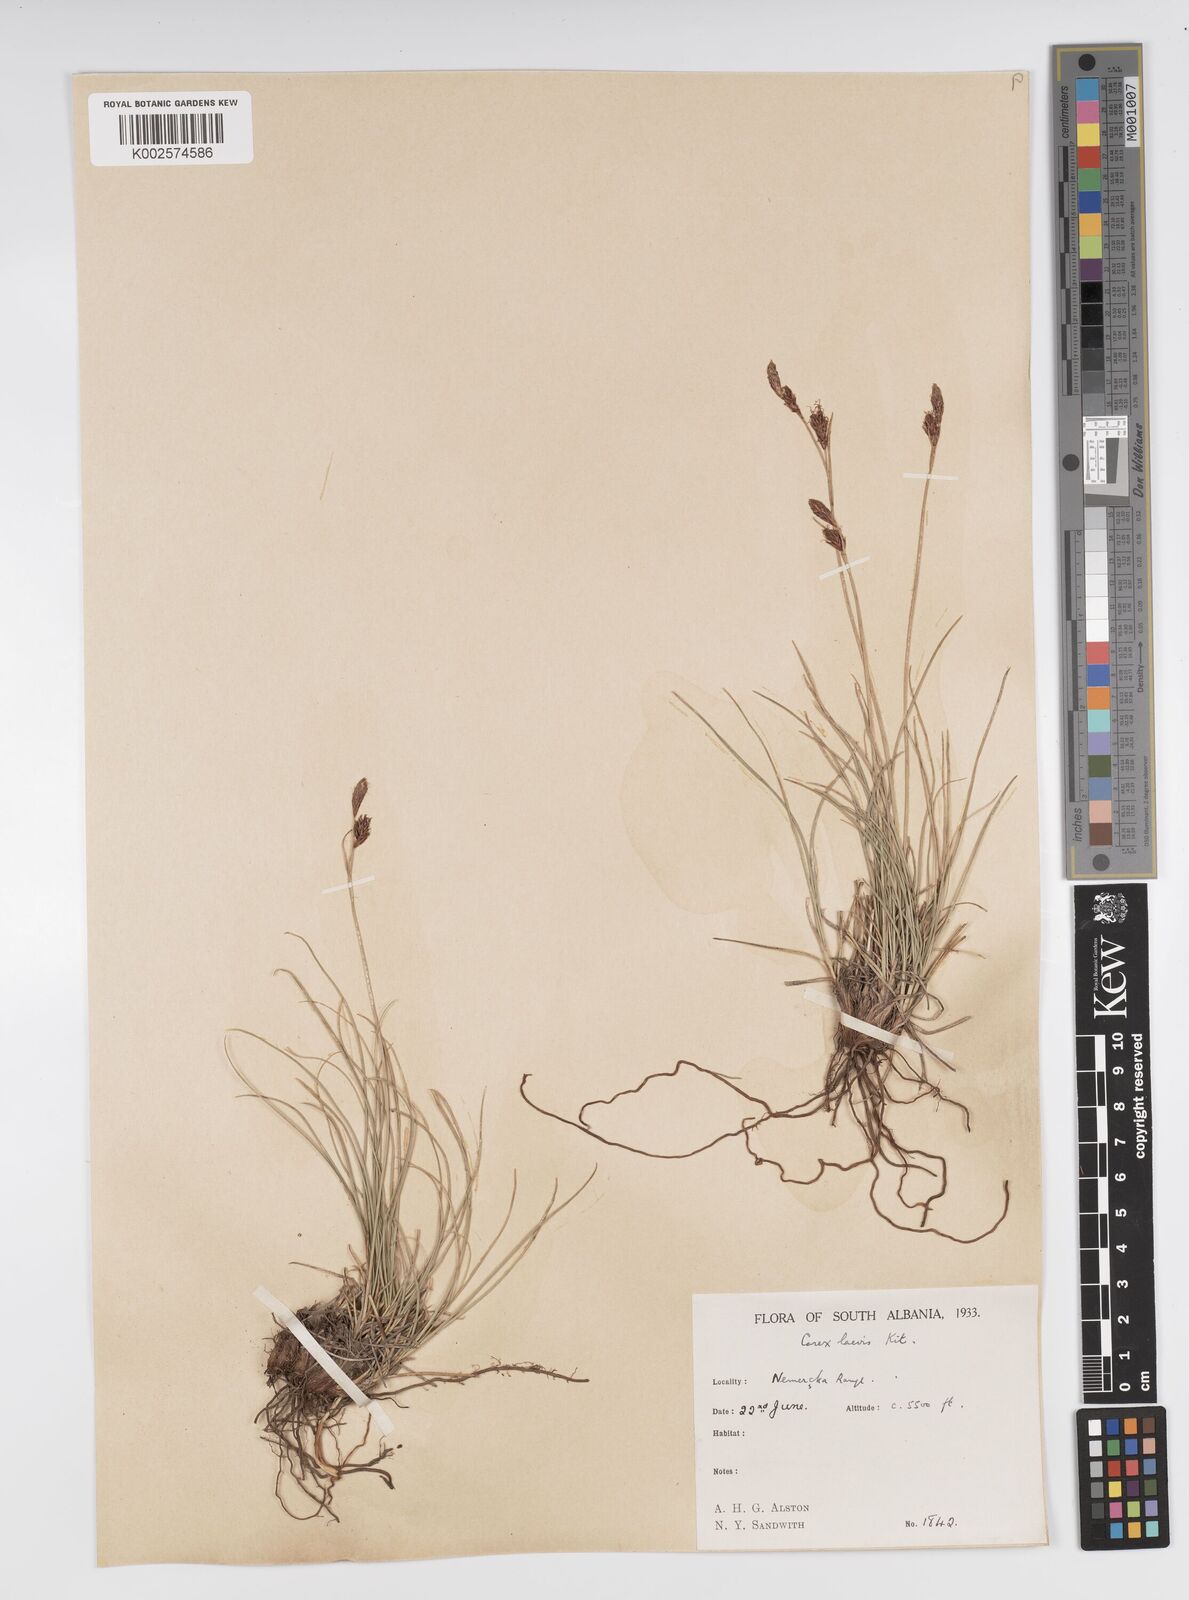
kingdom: Plantae
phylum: Tracheophyta
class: Liliopsida
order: Poales
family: Cyperaceae
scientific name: Cyperaceae
